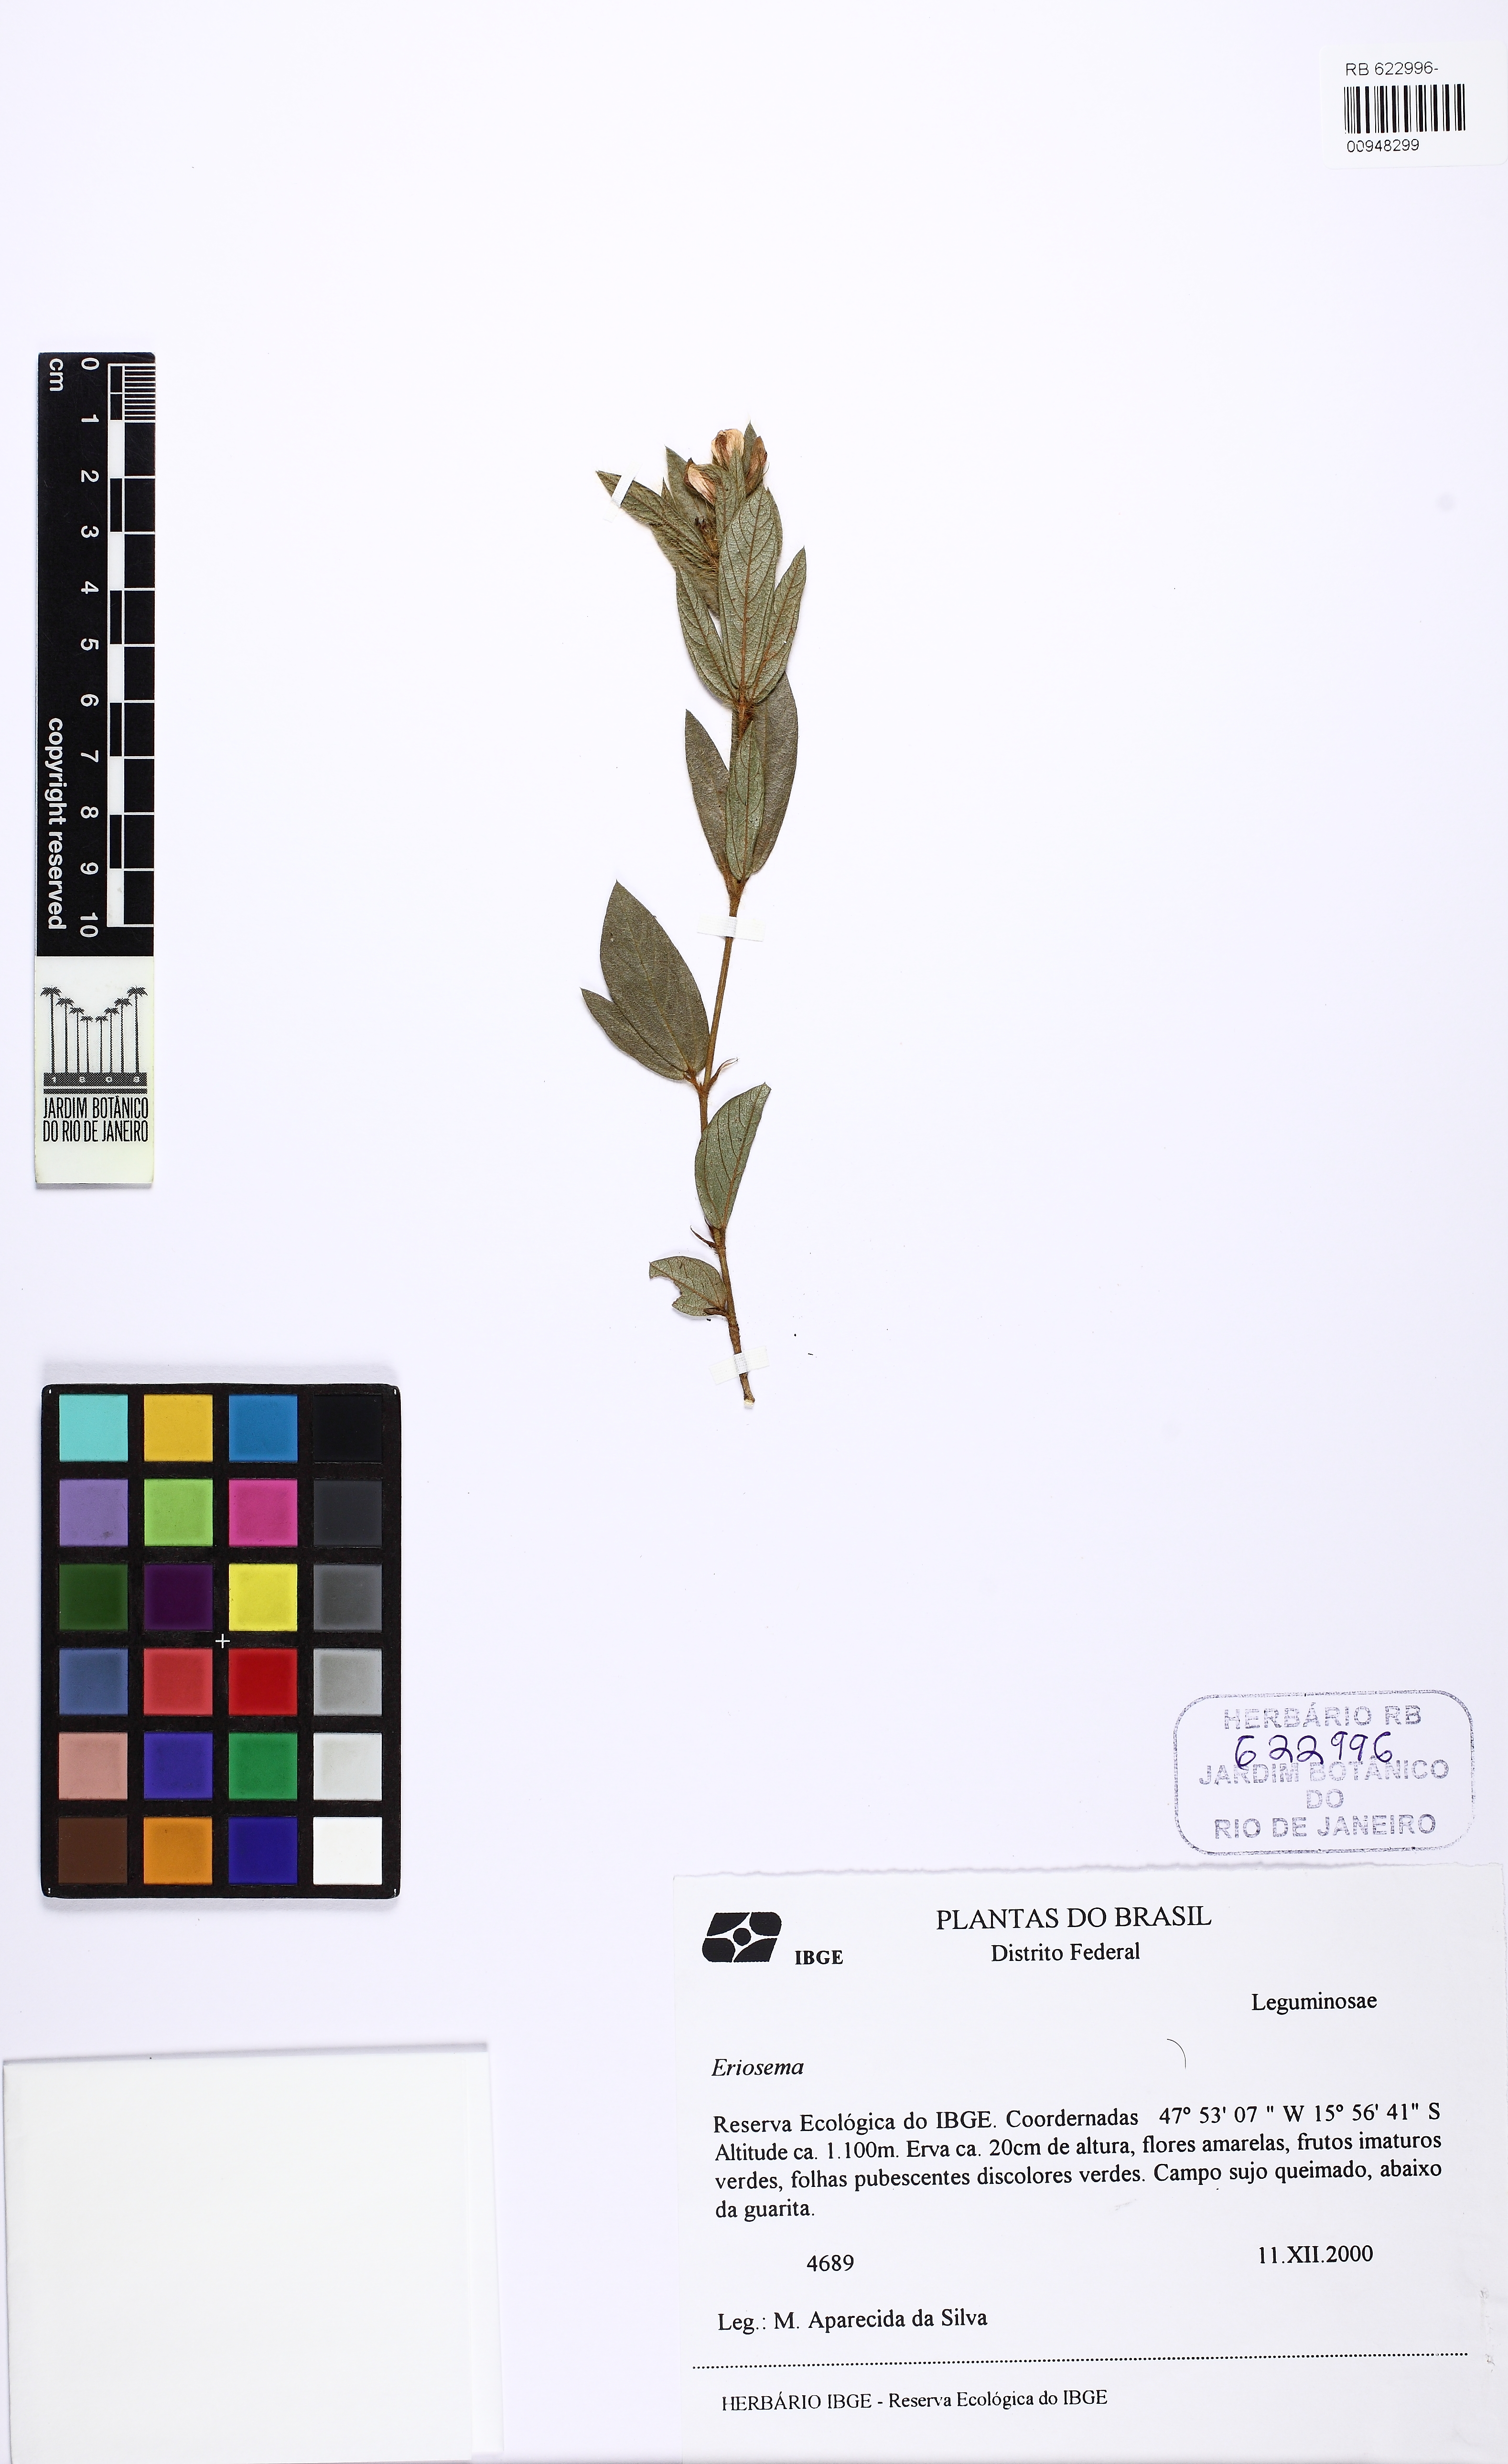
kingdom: Plantae
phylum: Tracheophyta
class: Magnoliopsida
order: Fabales
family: Fabaceae
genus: Eriosema
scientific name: Eriosema crinitum
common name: Sand pea
